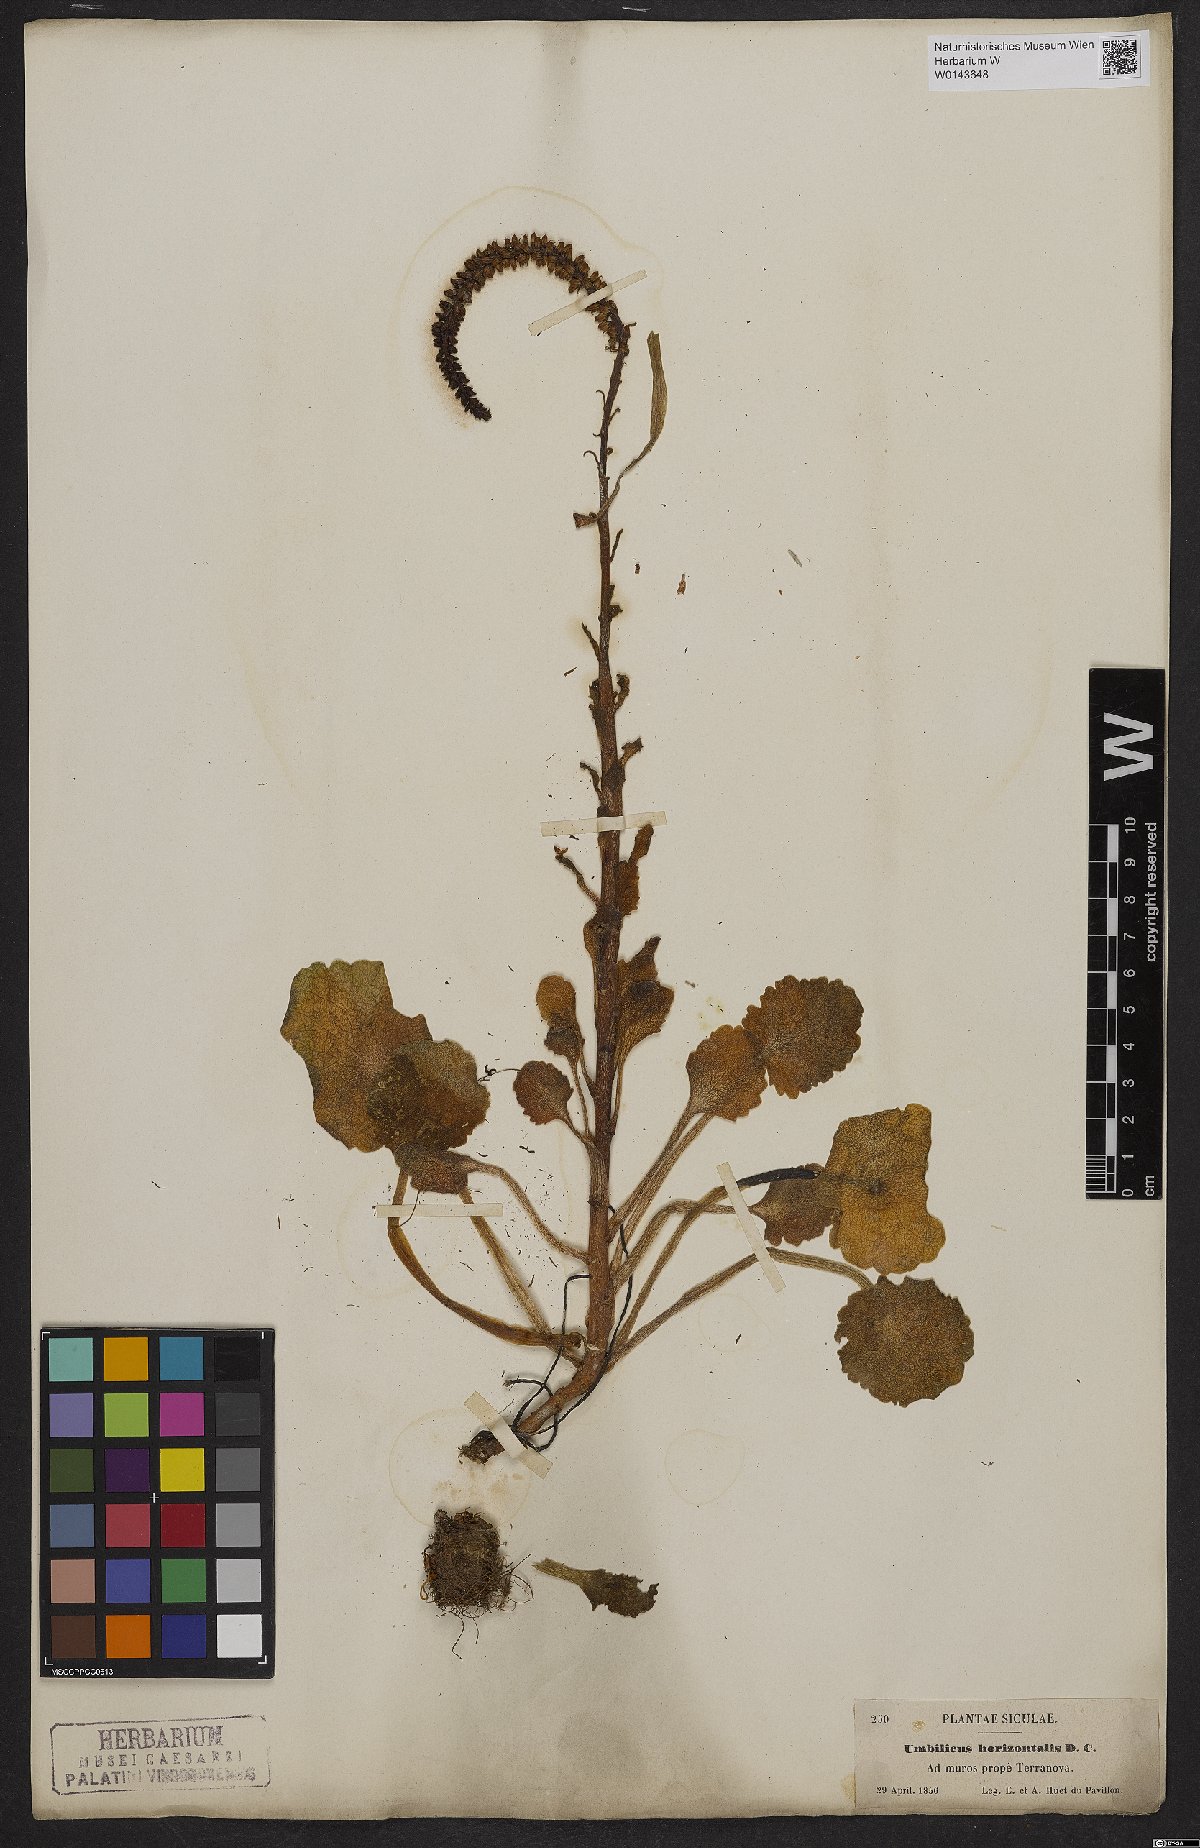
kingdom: Plantae
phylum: Tracheophyta
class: Magnoliopsida
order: Saxifragales
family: Crassulaceae
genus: Umbilicus
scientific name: Umbilicus horizontalis
